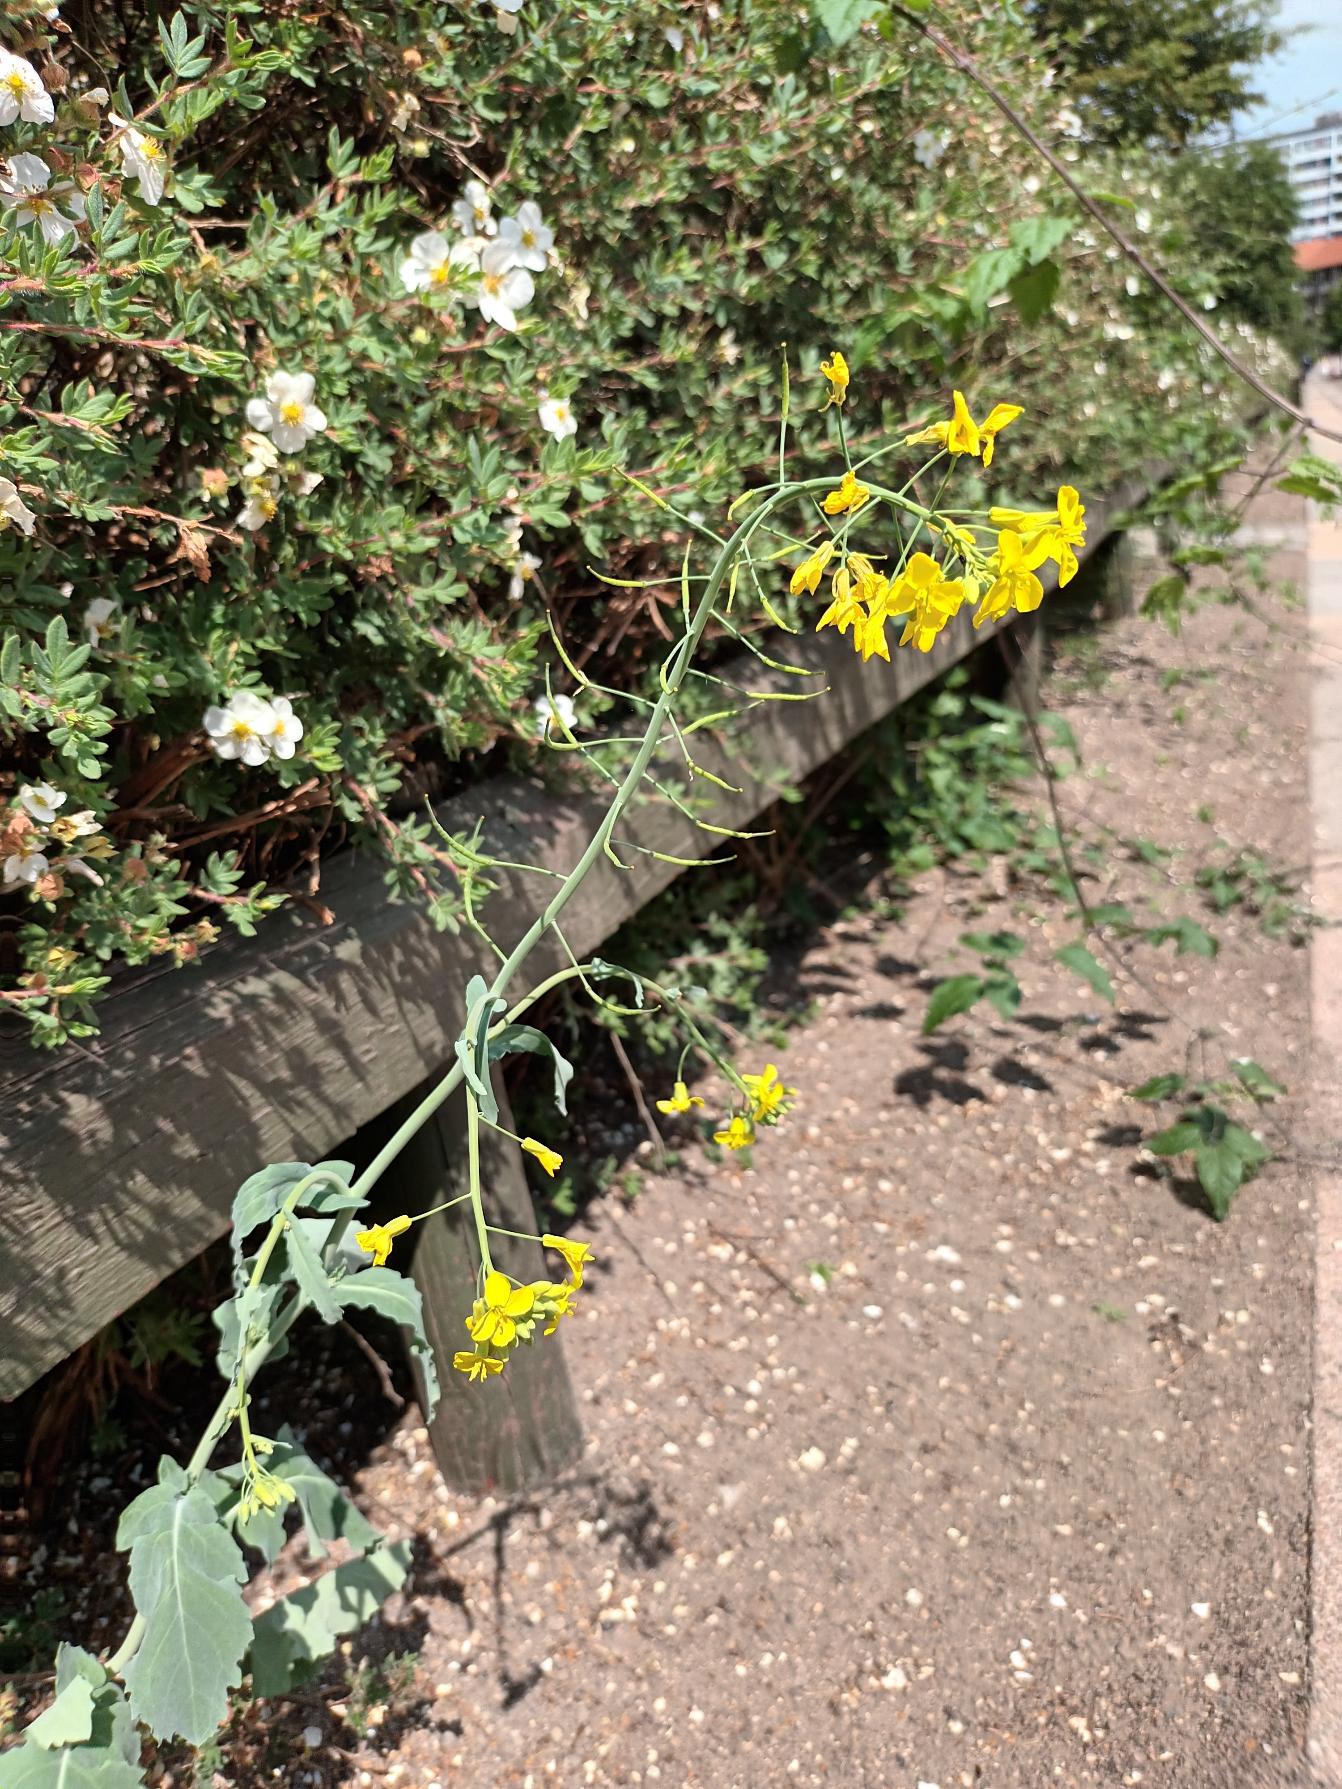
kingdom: Plantae
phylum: Tracheophyta
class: Magnoliopsida
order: Brassicales
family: Brassicaceae
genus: Brassica
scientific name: Brassica rapa
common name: Ager-kål
